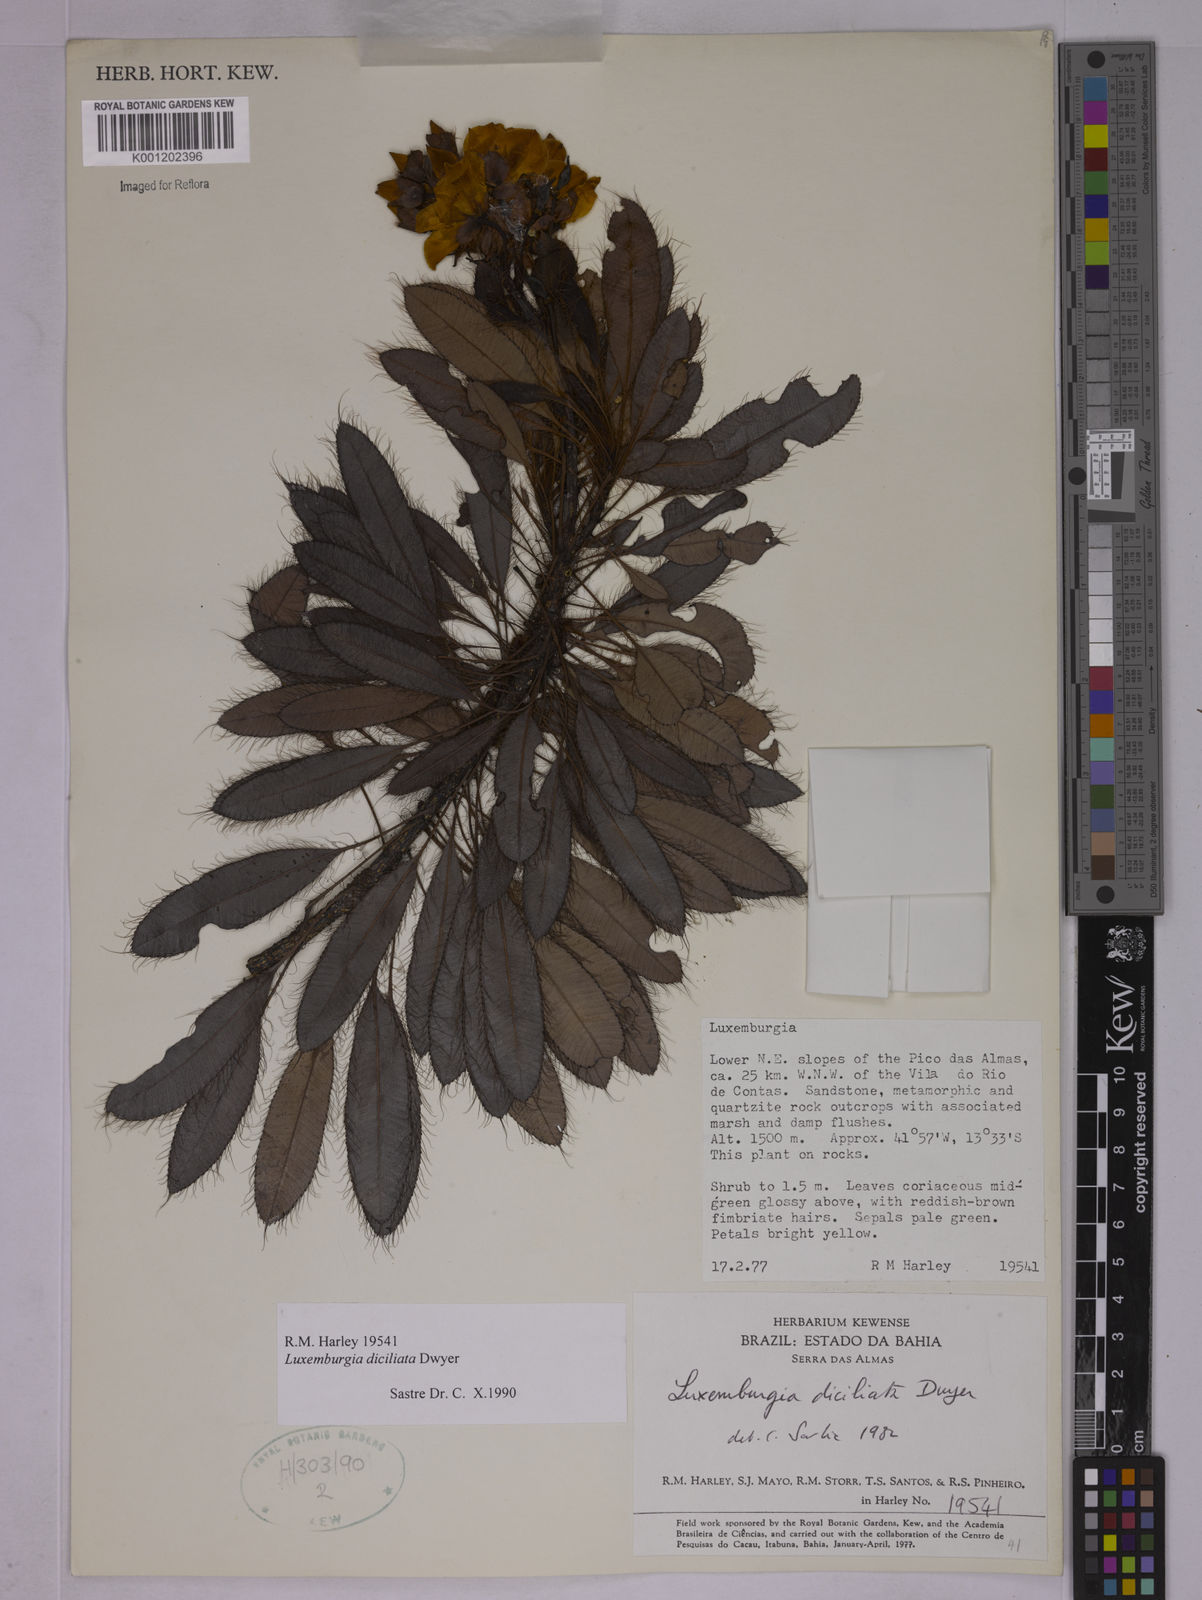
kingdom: Plantae
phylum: Tracheophyta
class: Magnoliopsida
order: Malpighiales
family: Ochnaceae
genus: Luxemburgia
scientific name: Luxemburgia diciliata
